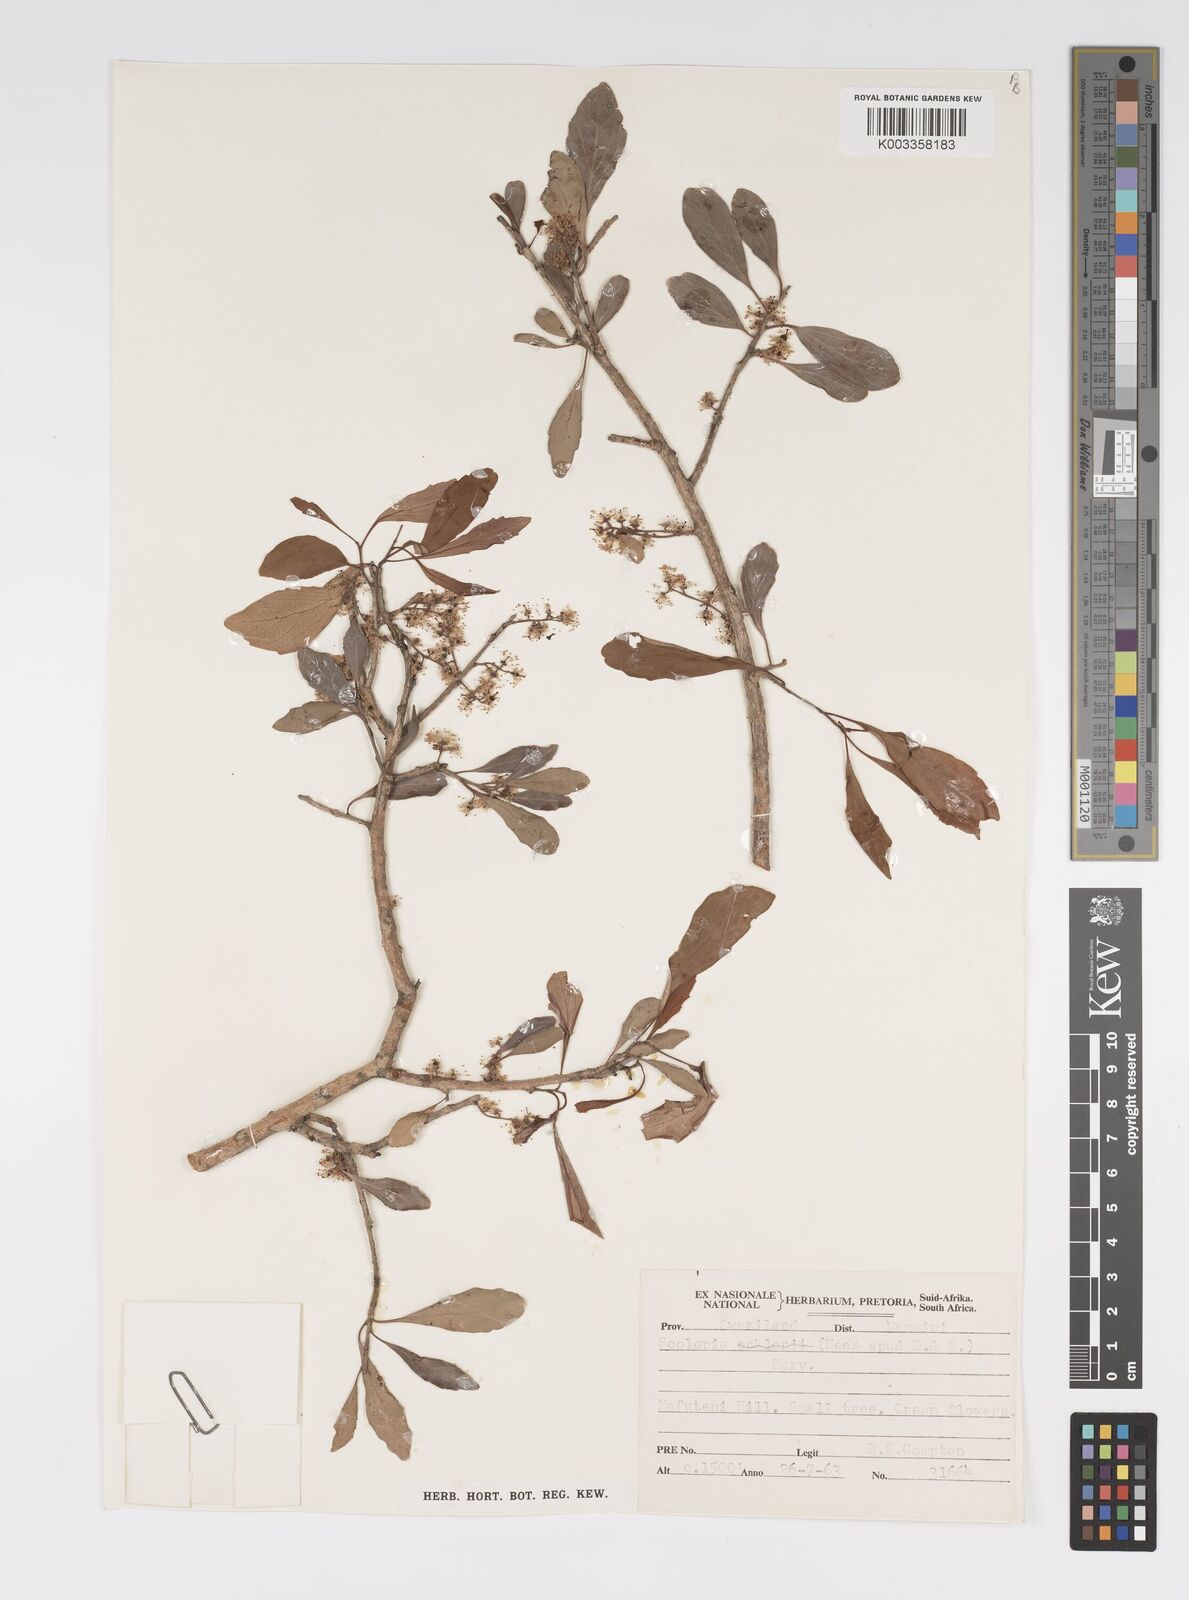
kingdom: Plantae
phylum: Tracheophyta
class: Magnoliopsida
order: Malpighiales
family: Salicaceae
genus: Scolopia
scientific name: Scolopia zeyheri
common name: Thorn pear
